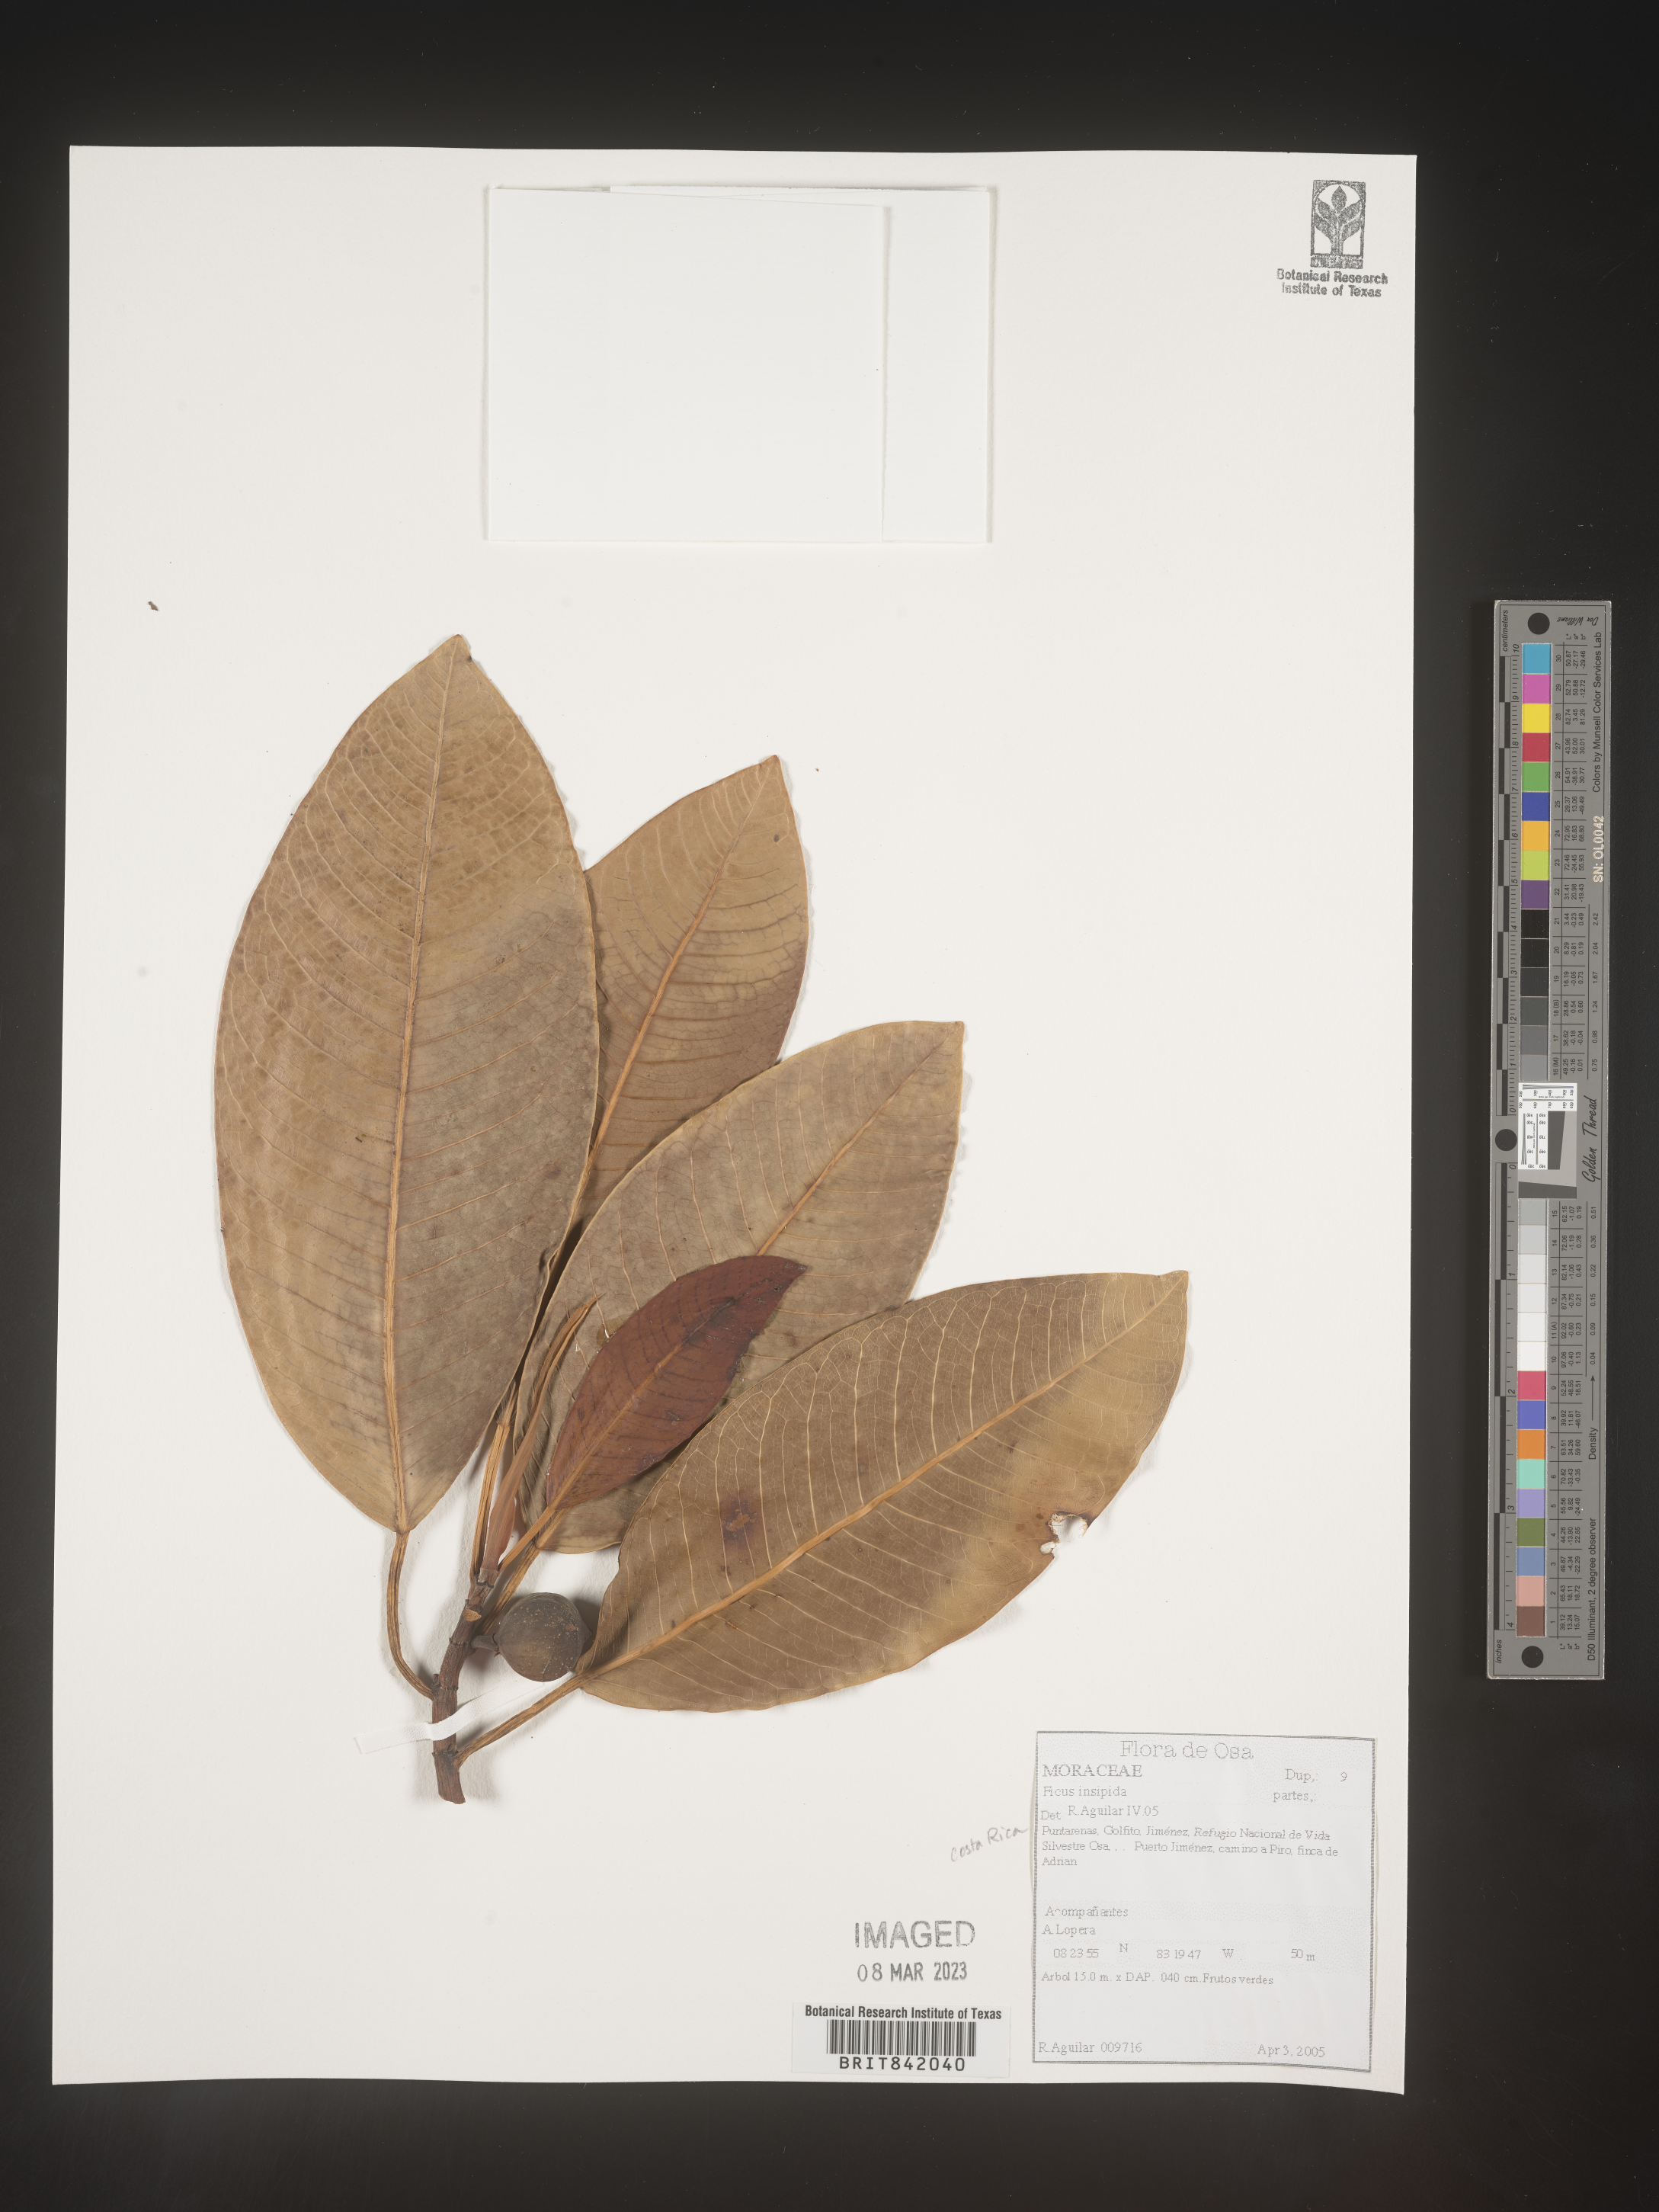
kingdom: Plantae
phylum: Tracheophyta
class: Magnoliopsida
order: Rosales
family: Moraceae
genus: Ficus
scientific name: Ficus insipida
